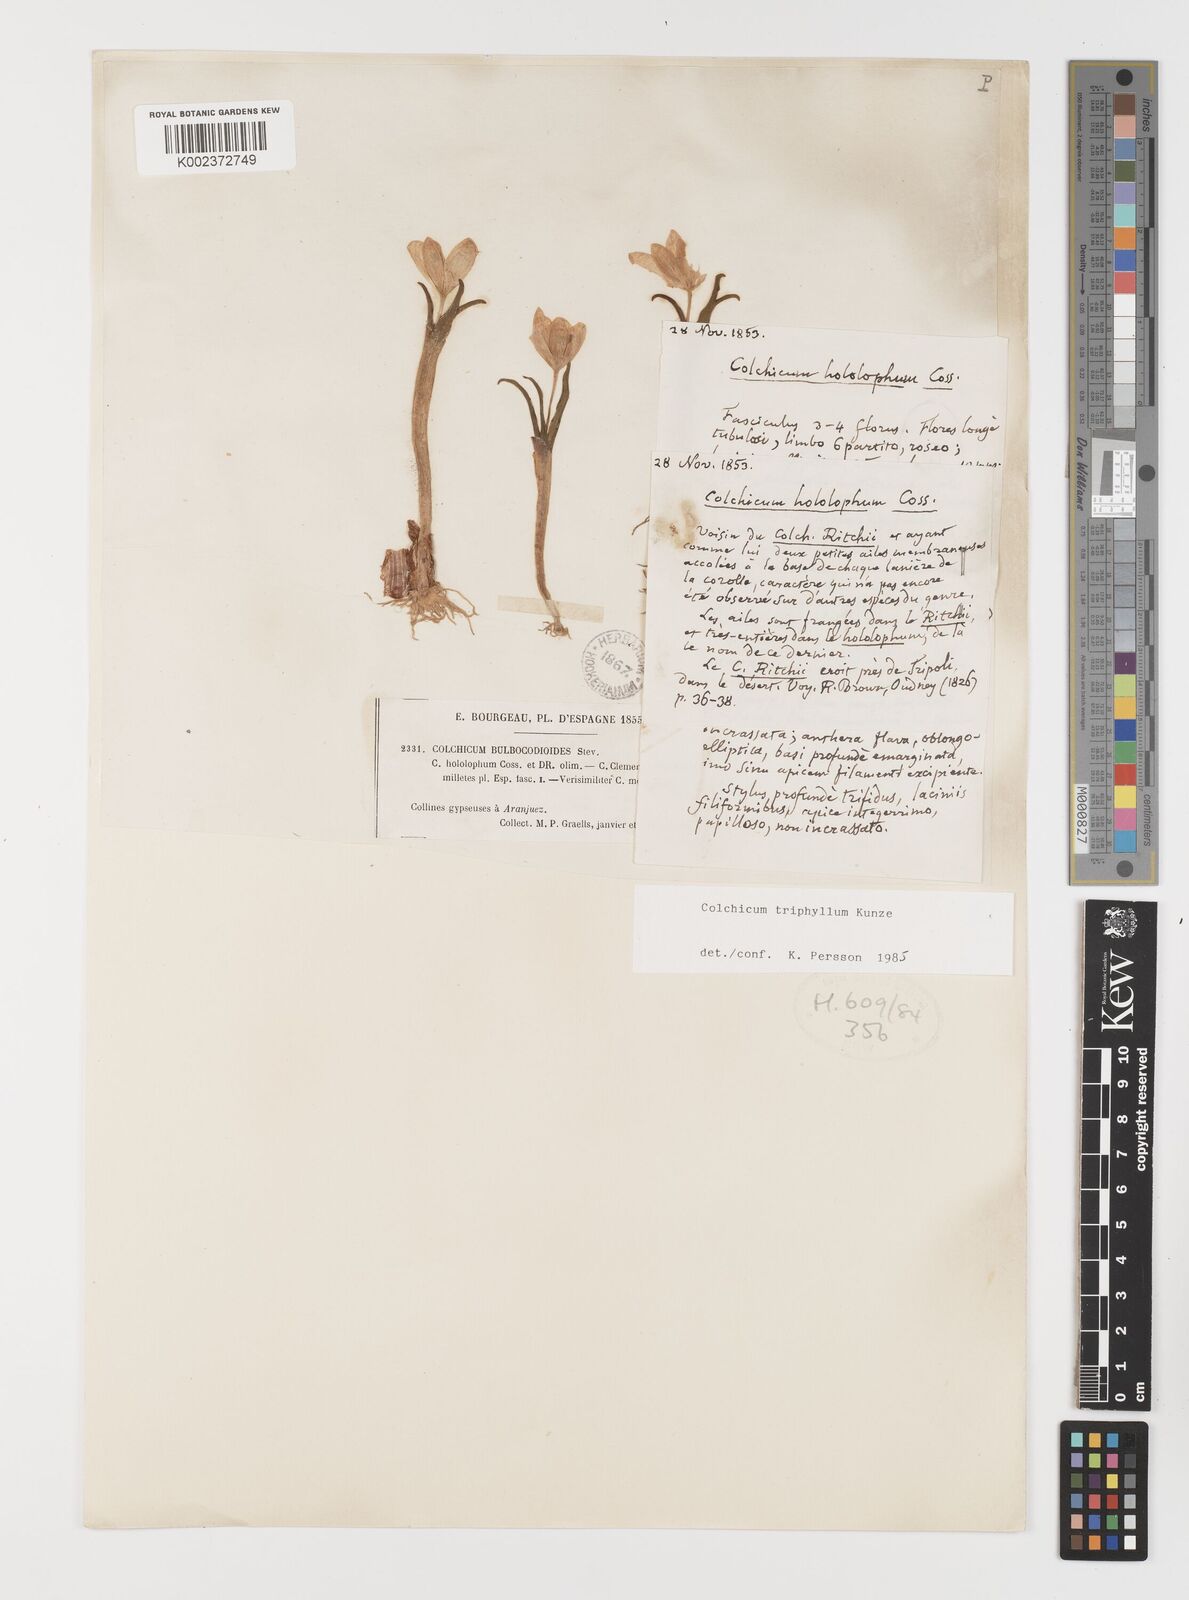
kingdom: Plantae
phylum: Tracheophyta
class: Liliopsida
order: Liliales
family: Colchicaceae
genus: Colchicum
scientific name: Colchicum
